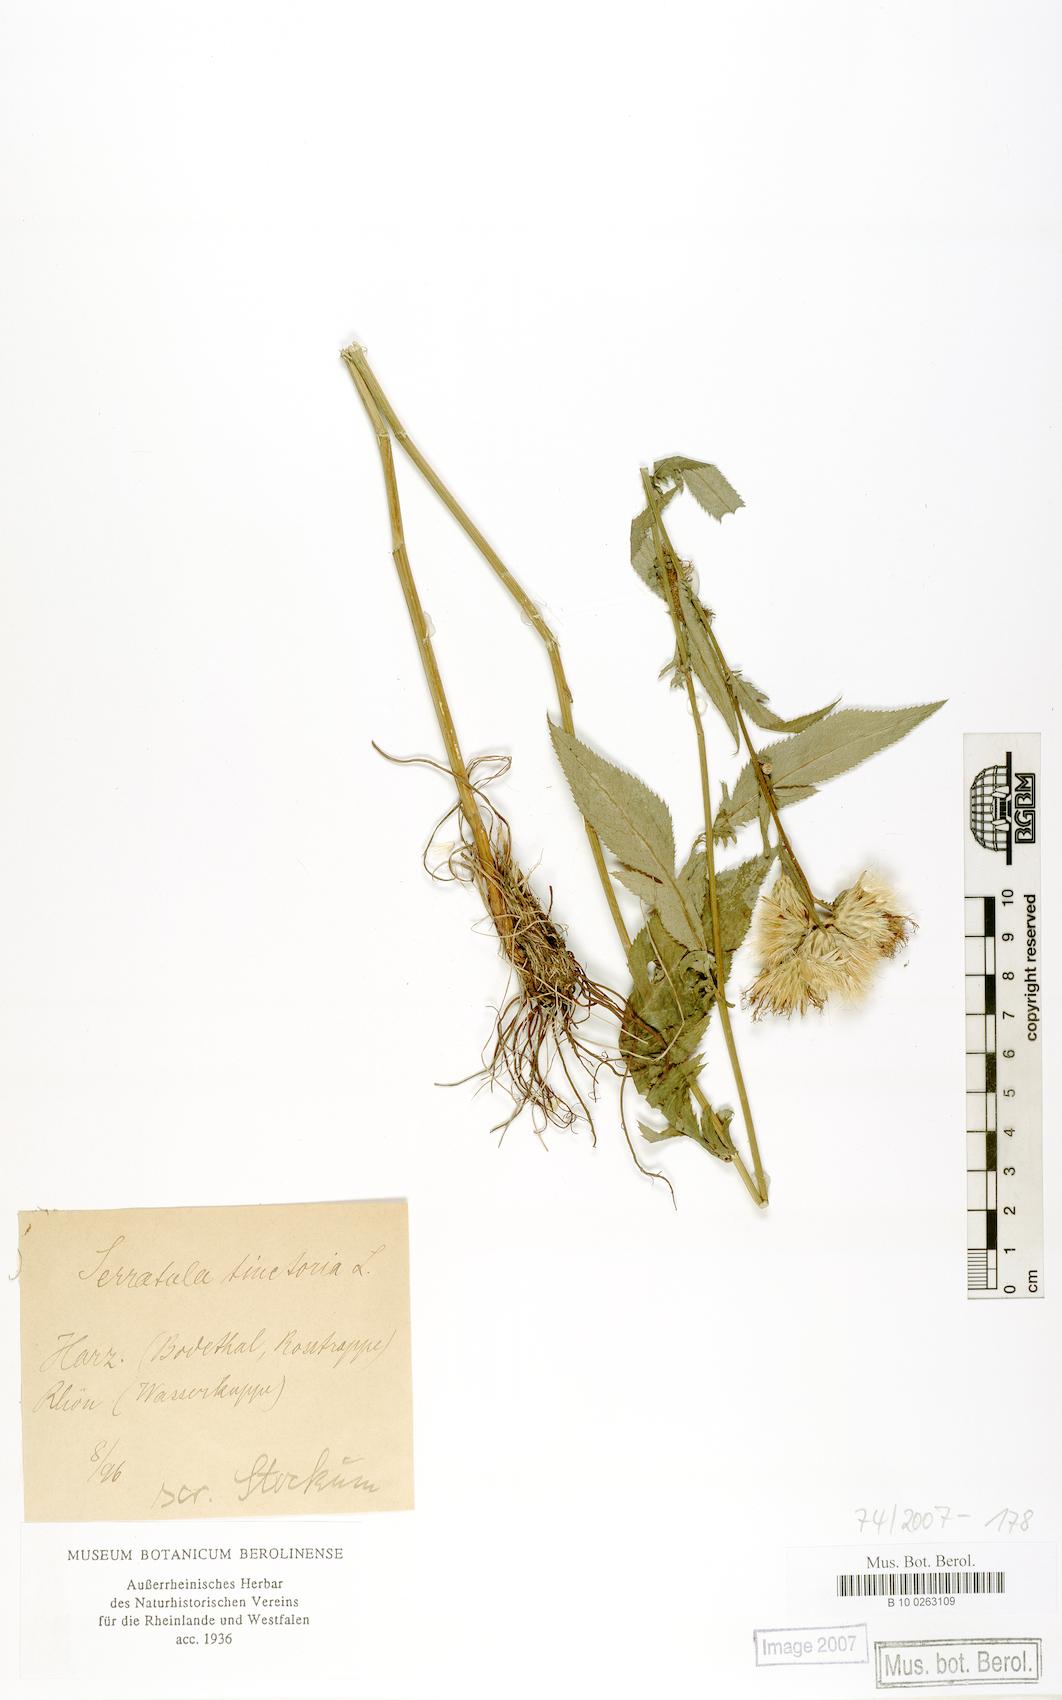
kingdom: Plantae
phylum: Tracheophyta
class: Magnoliopsida
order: Asterales
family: Asteraceae
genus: Serratula
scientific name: Serratula tinctoria
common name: Saw-wort
